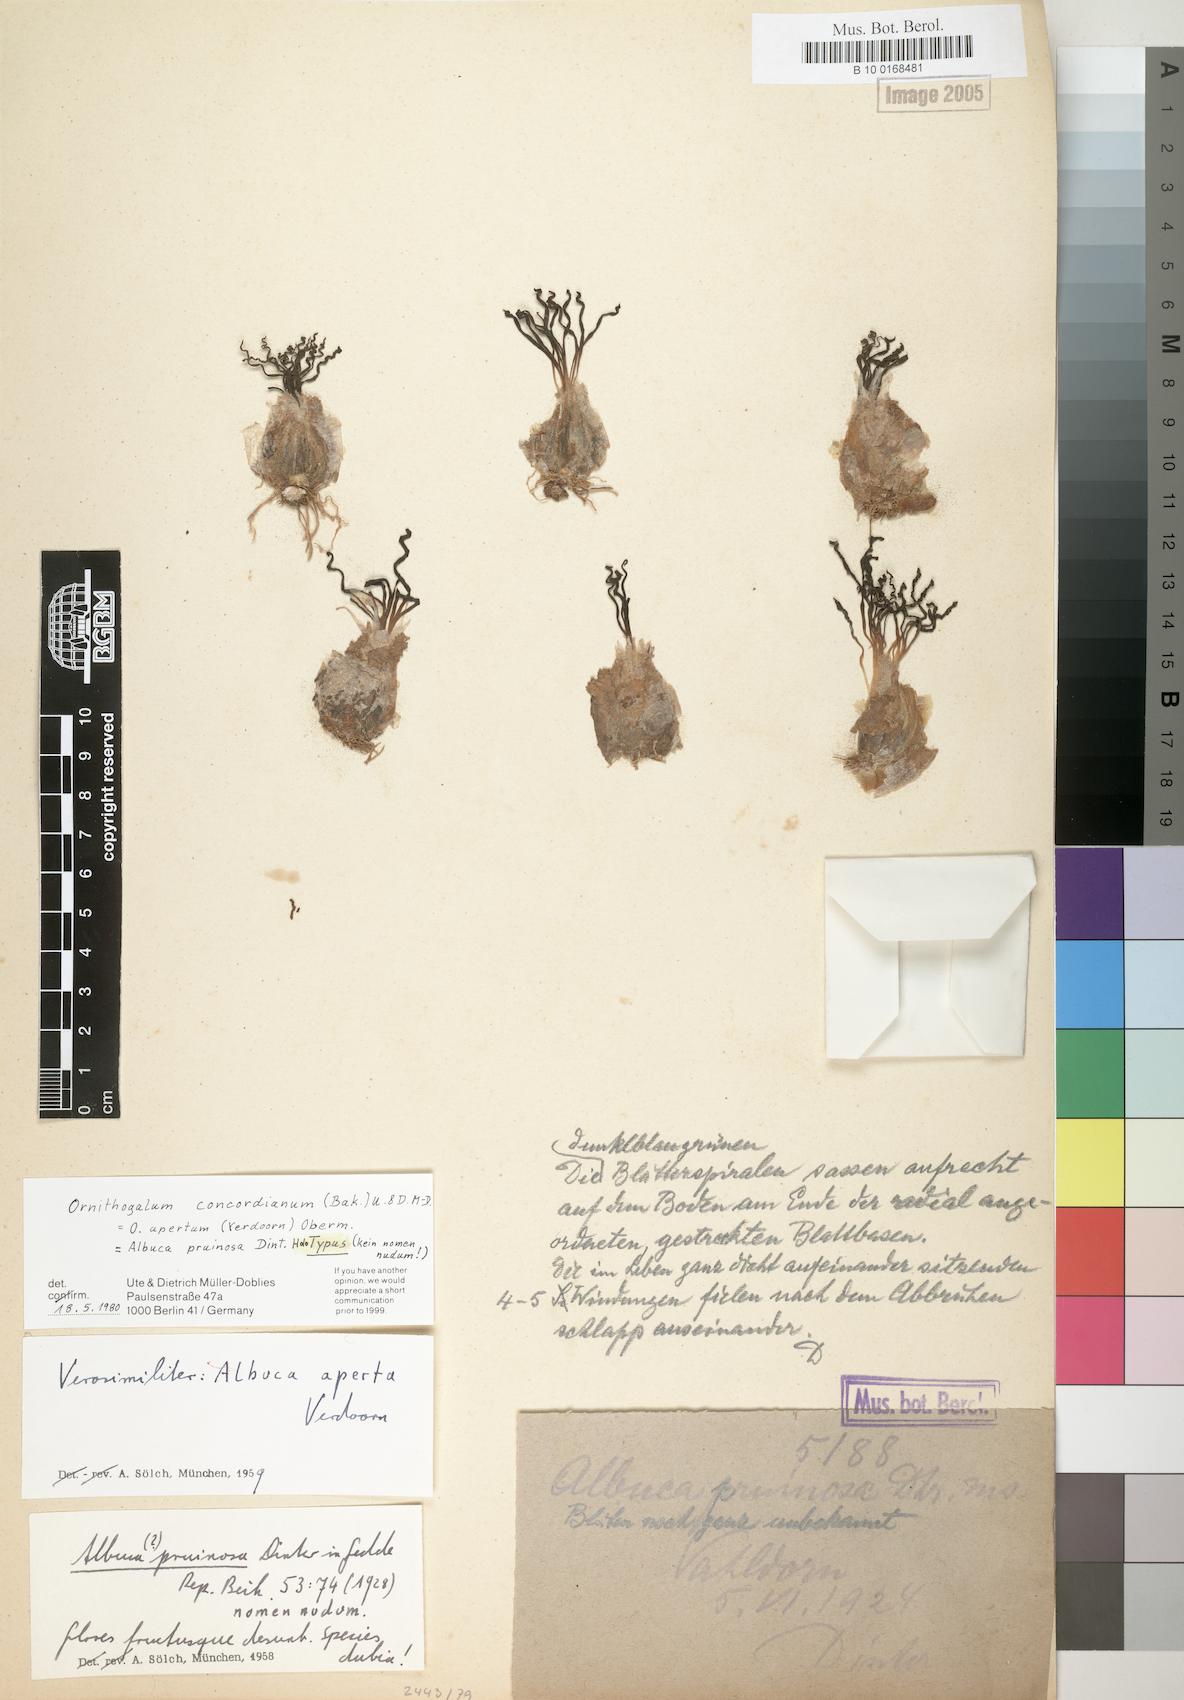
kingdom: Plantae
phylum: Tracheophyta
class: Liliopsida
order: Asparagales
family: Asparagaceae
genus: Albuca
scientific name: Albuca concordiana
